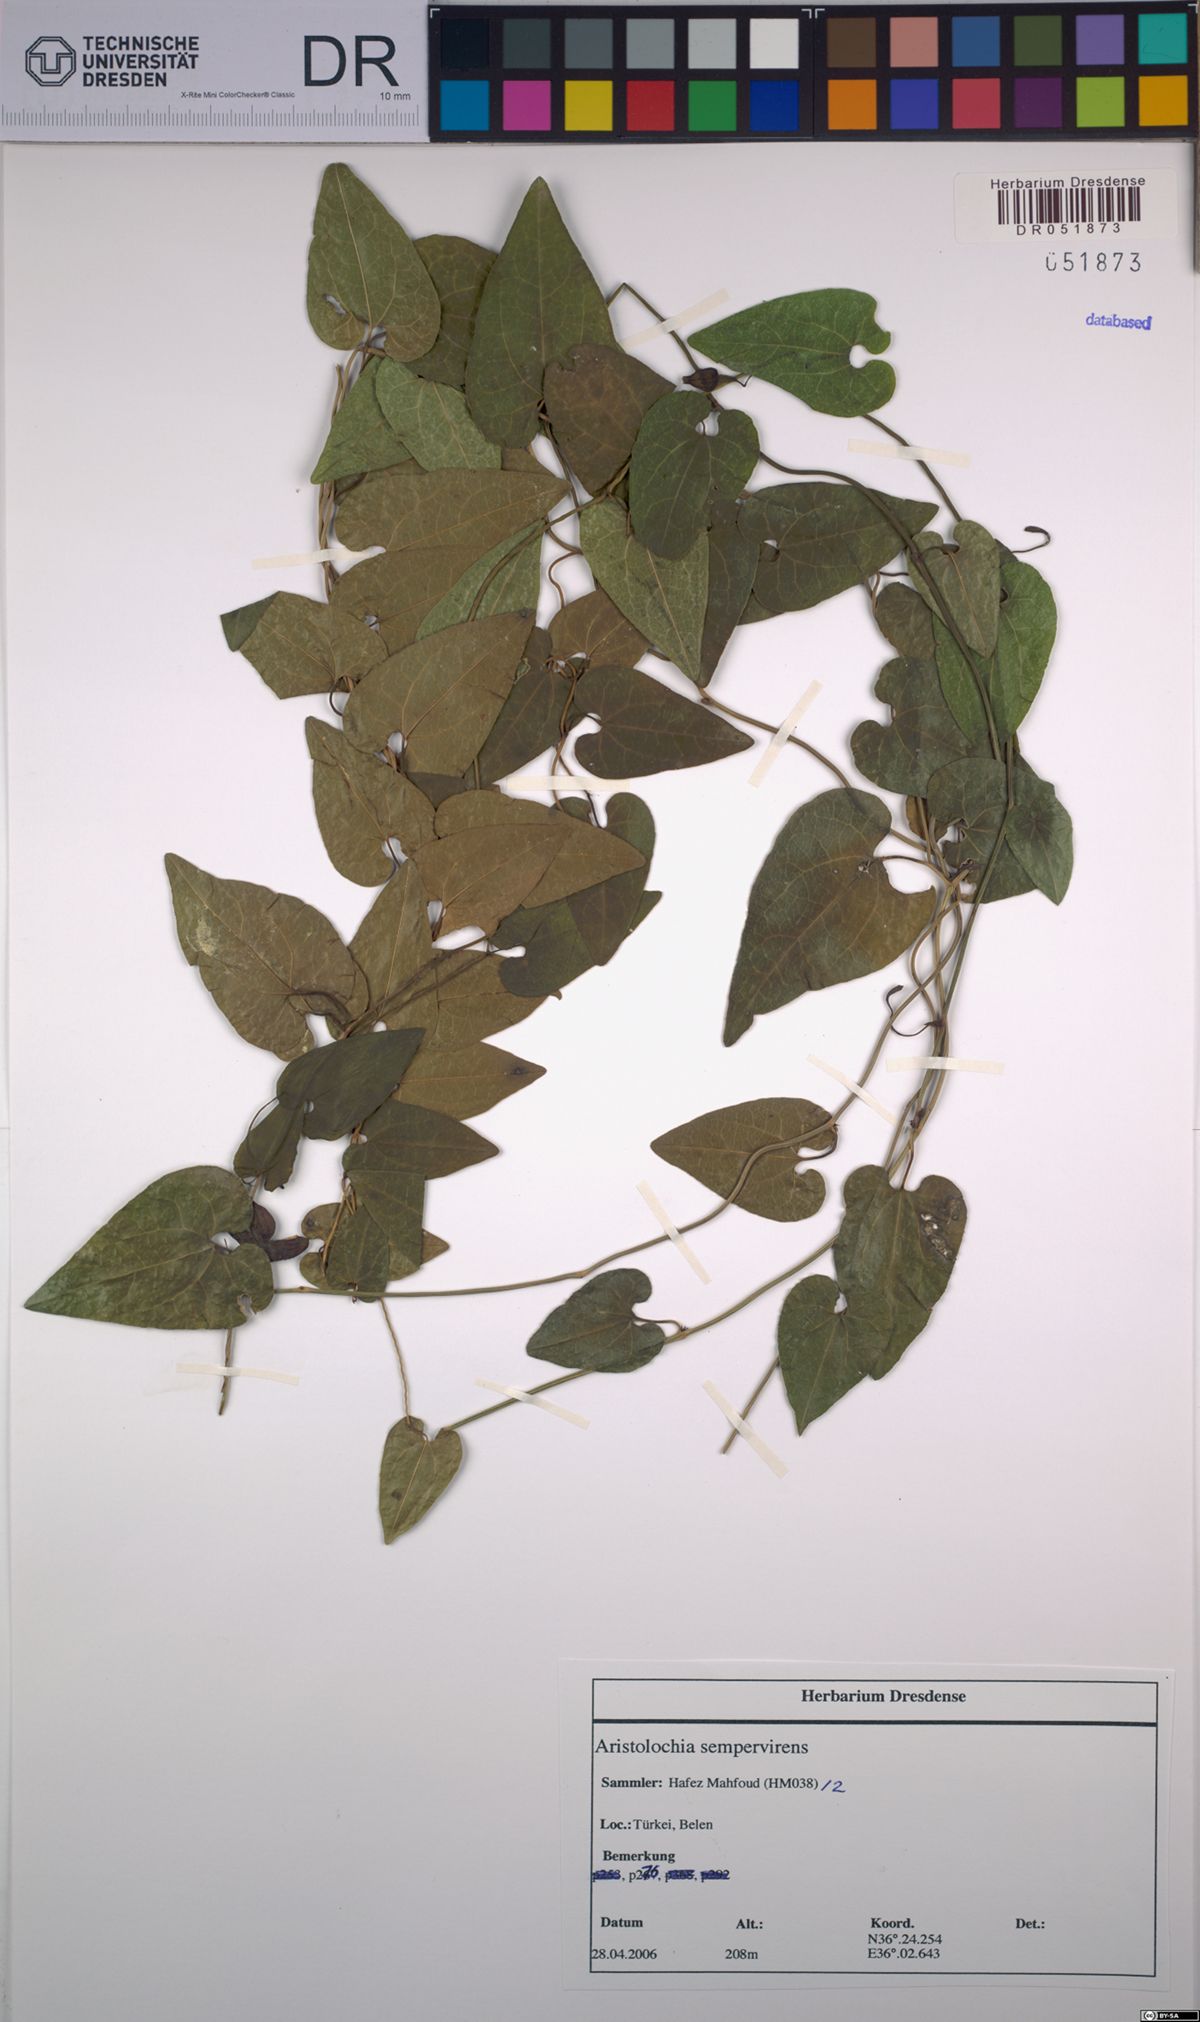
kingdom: Plantae
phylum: Tracheophyta
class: Magnoliopsida
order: Piperales
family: Aristolochiaceae
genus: Aristolochia
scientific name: Aristolochia sempervirens
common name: Long birthwort
